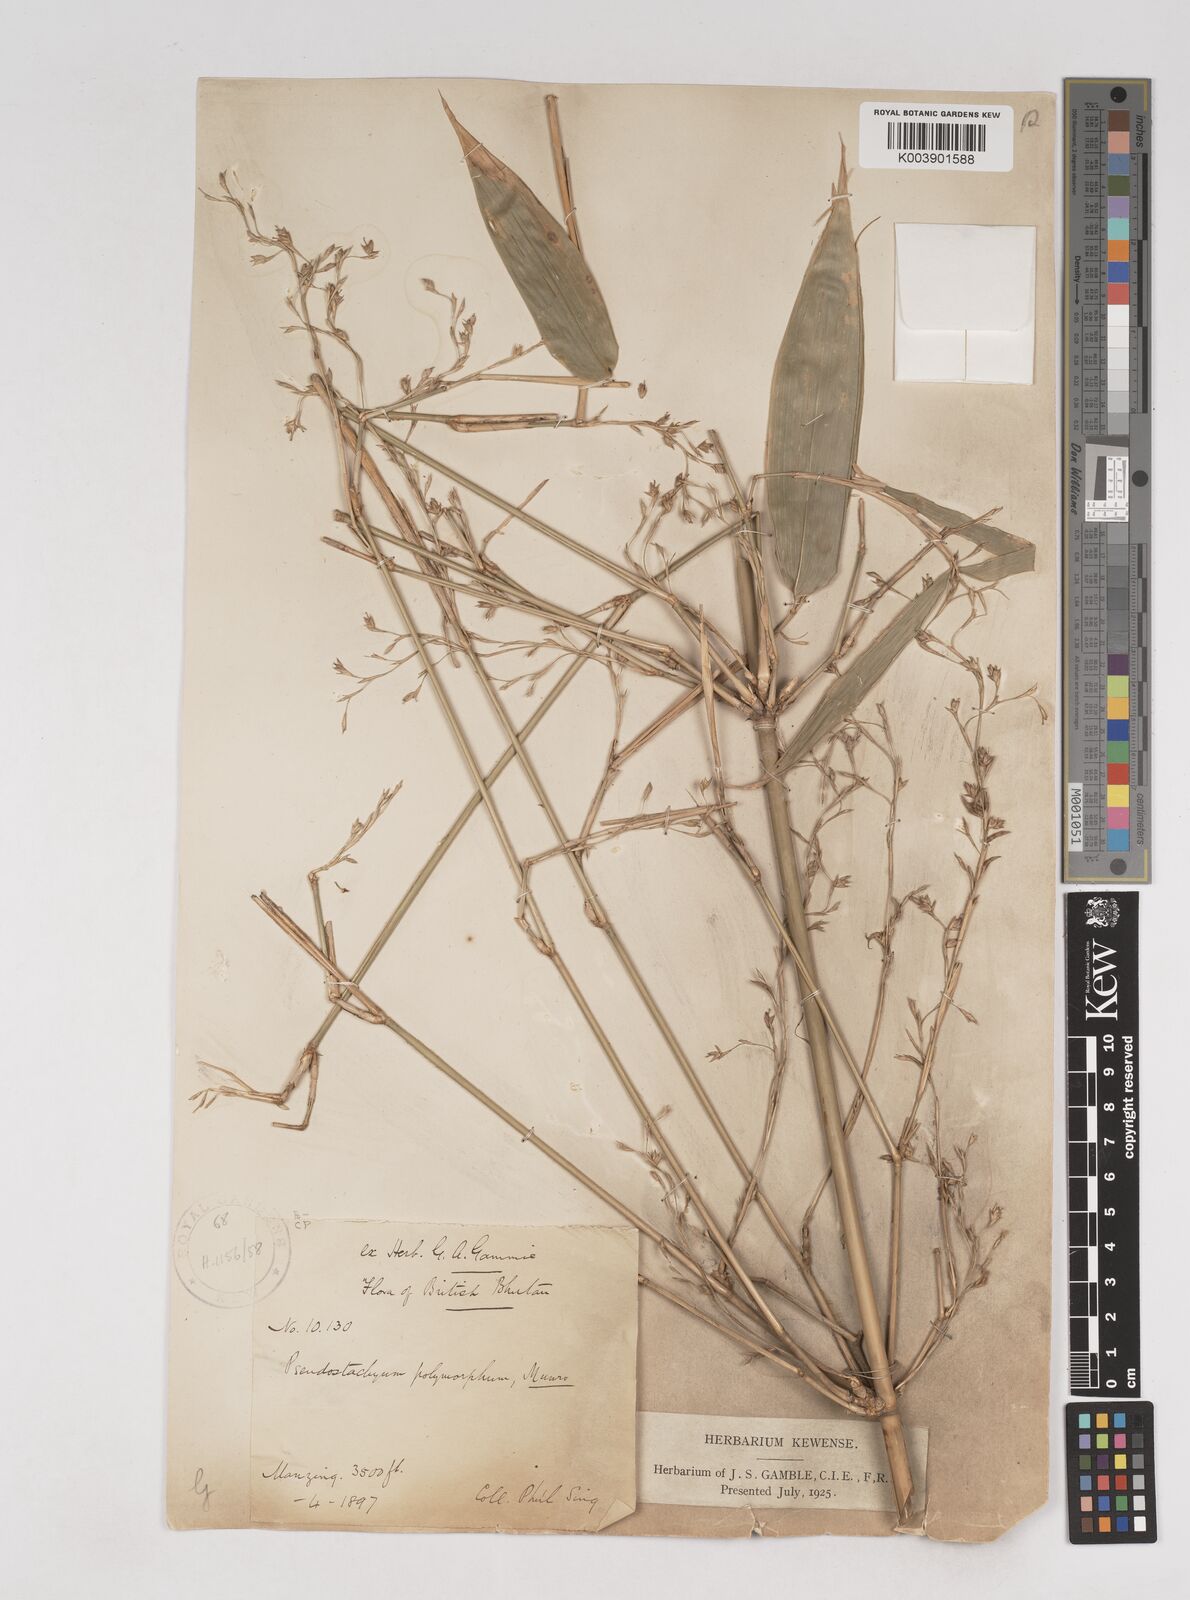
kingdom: Plantae
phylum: Tracheophyta
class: Liliopsida
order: Poales
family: Poaceae
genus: Pseudostachyum
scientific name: Pseudostachyum polymorphum
